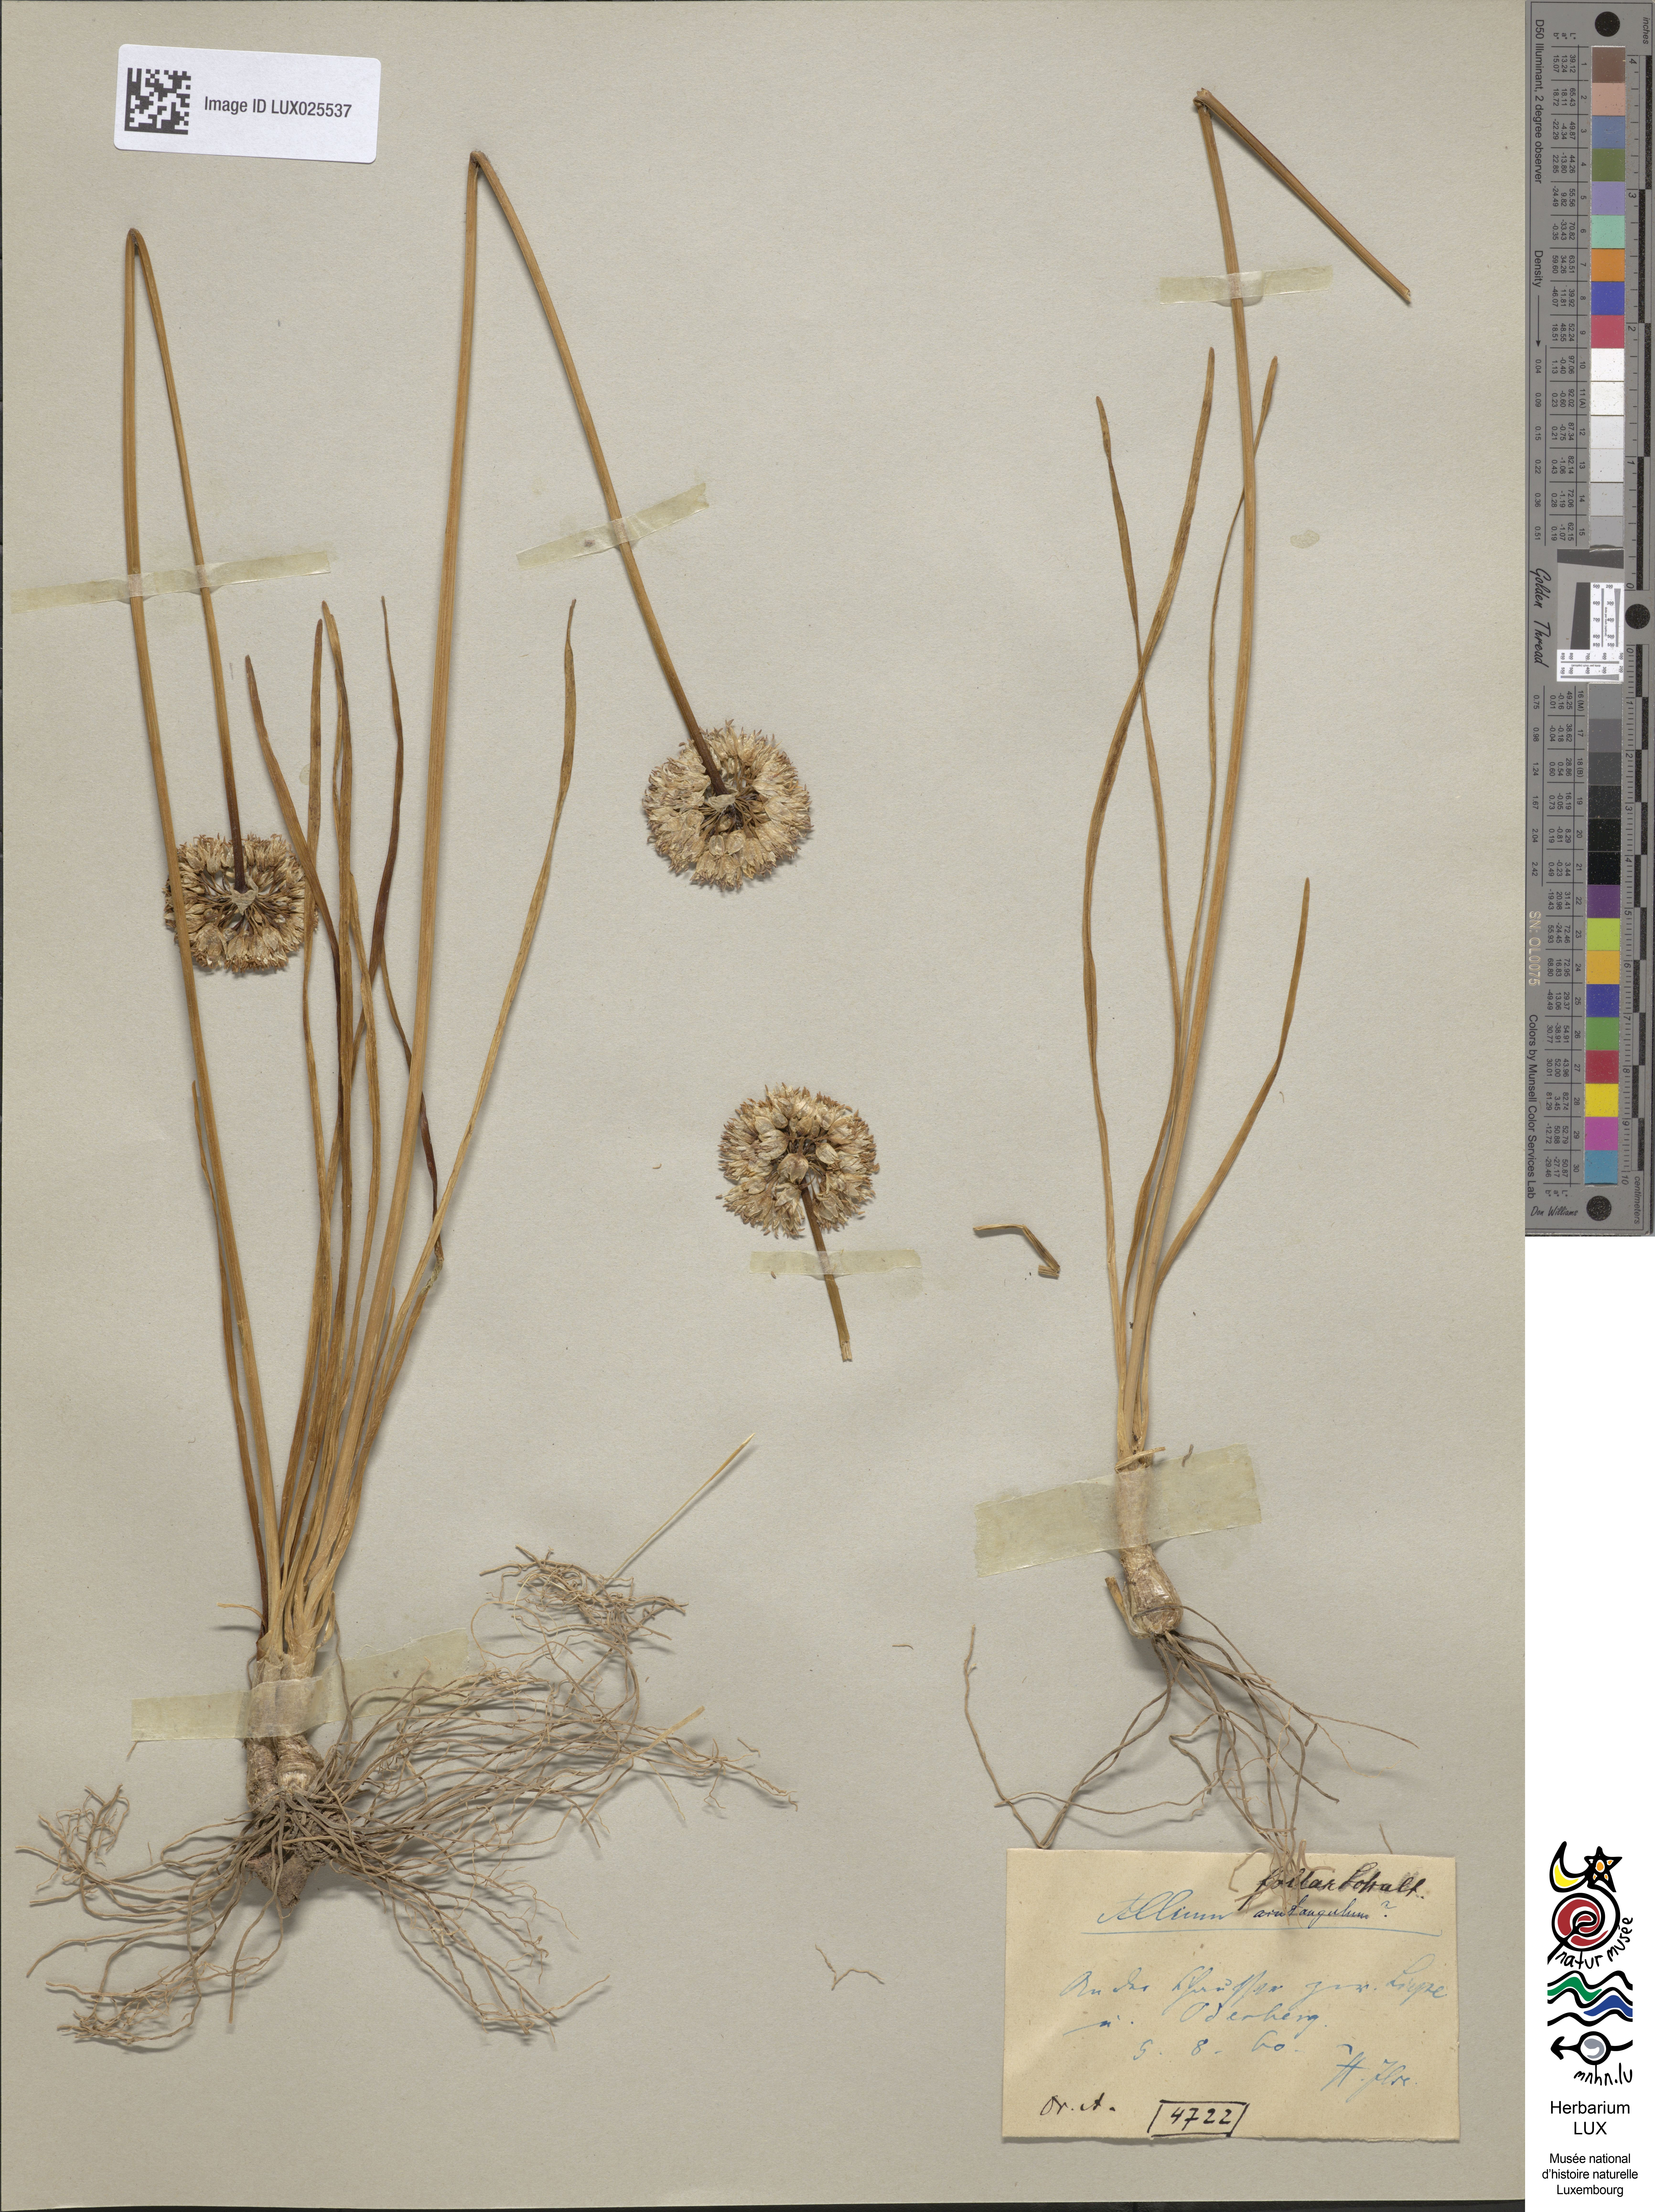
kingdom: Plantae
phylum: Tracheophyta
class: Liliopsida
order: Asparagales
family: Amaryllidaceae
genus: Allium
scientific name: Allium lusitanicum
